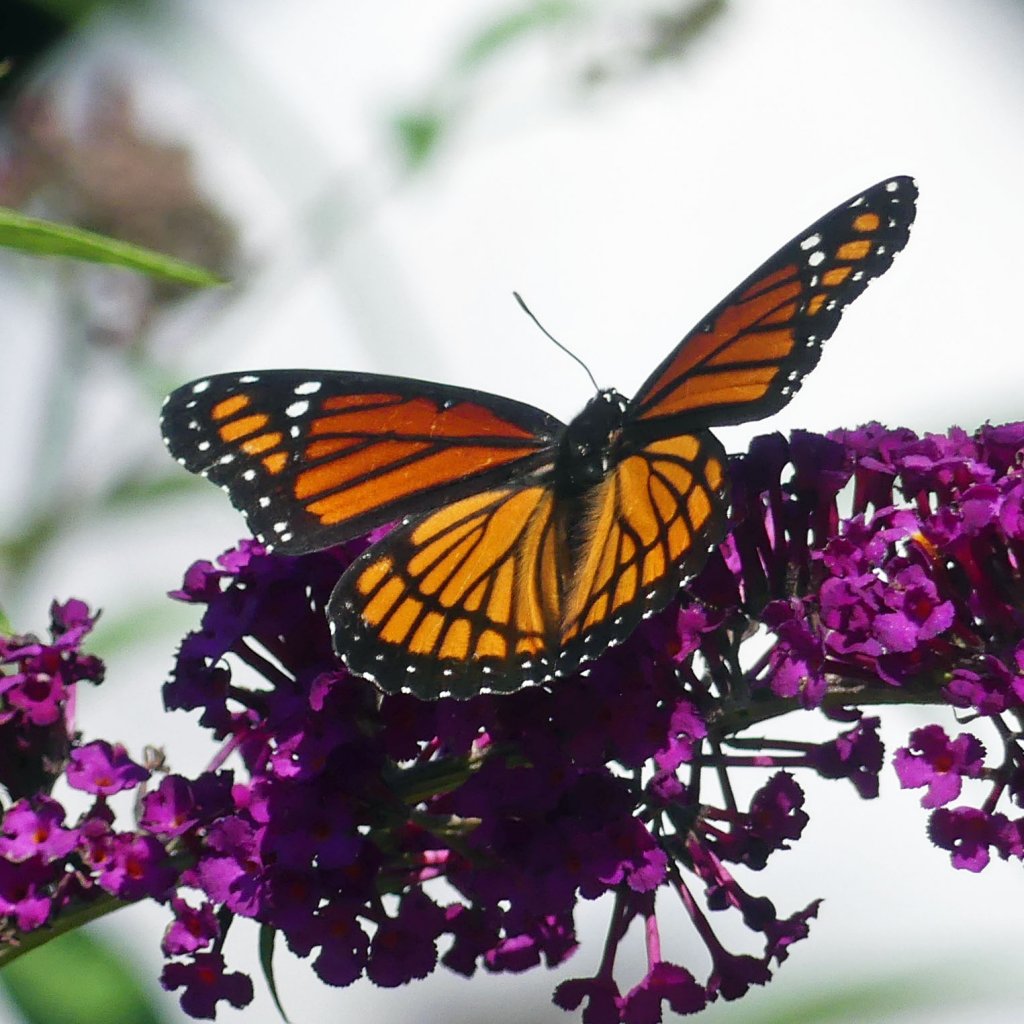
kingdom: Animalia
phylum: Arthropoda
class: Insecta
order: Lepidoptera
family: Nymphalidae
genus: Limenitis
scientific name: Limenitis archippus
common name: Viceroy
